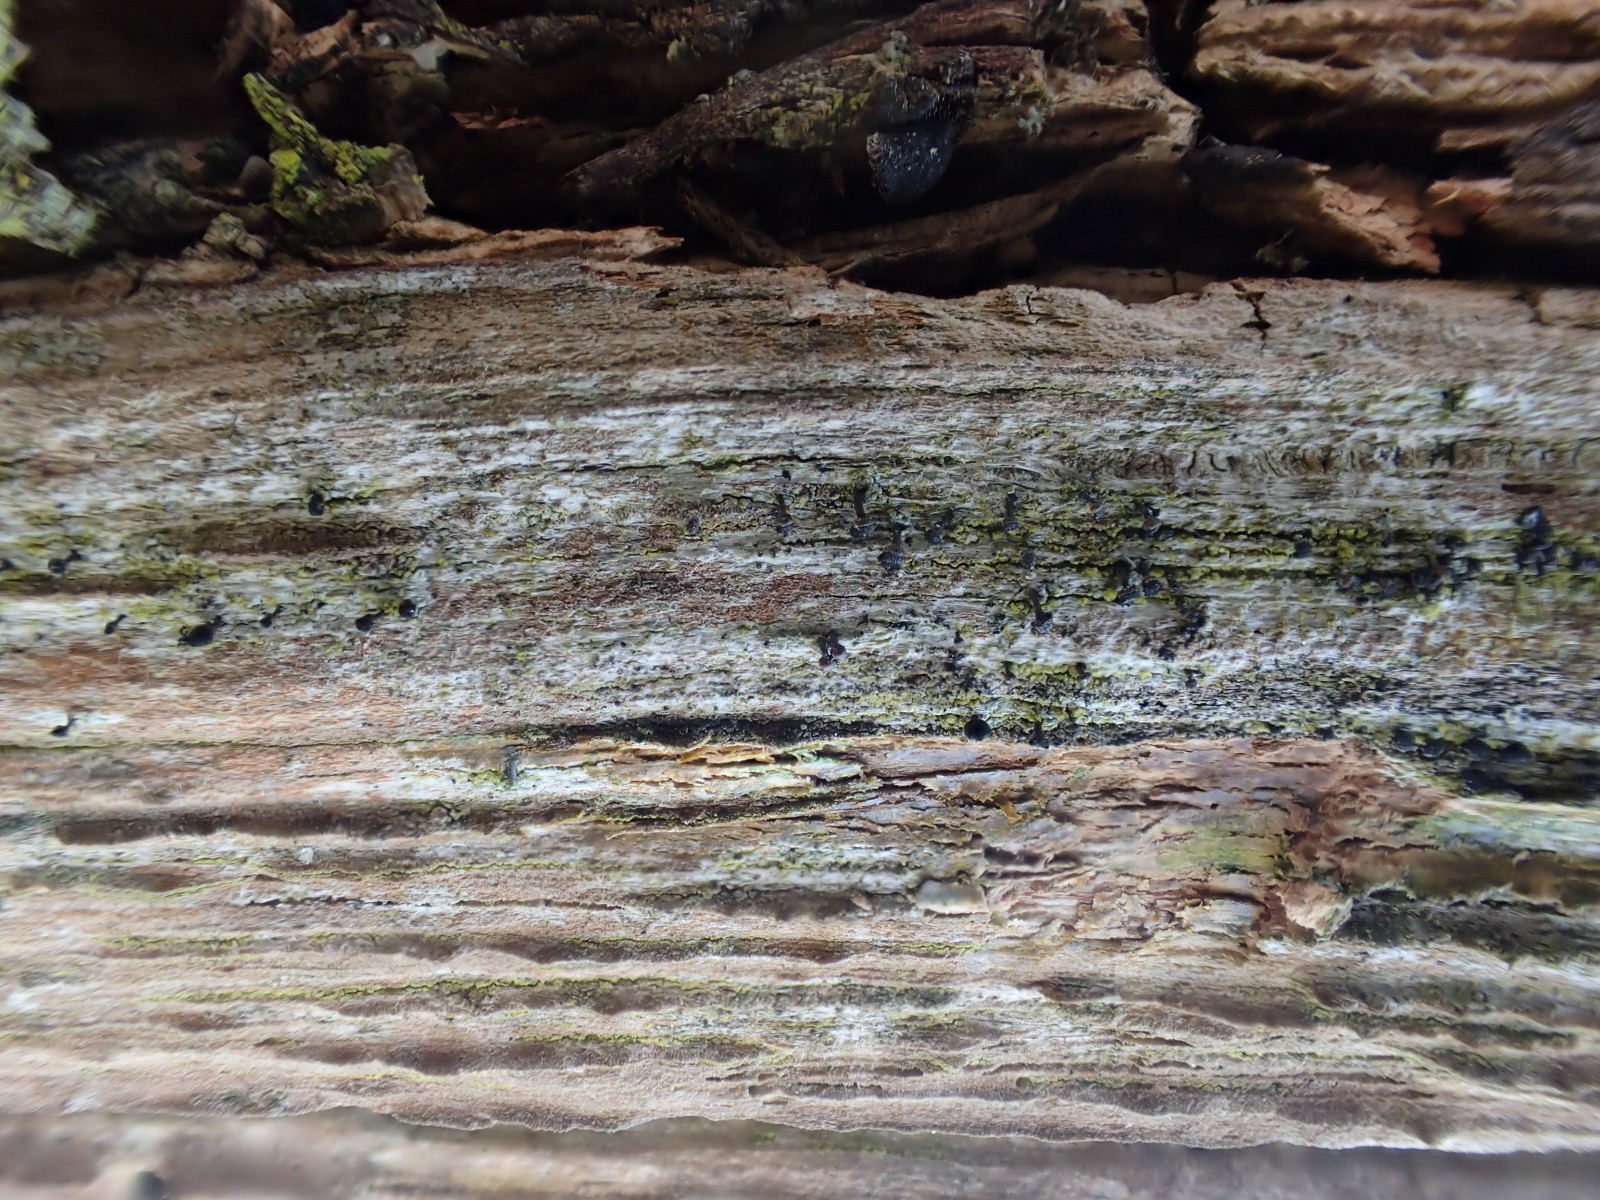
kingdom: Fungi
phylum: Ascomycota
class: Lecanoromycetes
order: Caliciales
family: Caliciaceae
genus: Calicium
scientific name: Calicium salicinum
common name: persoons nålelav
